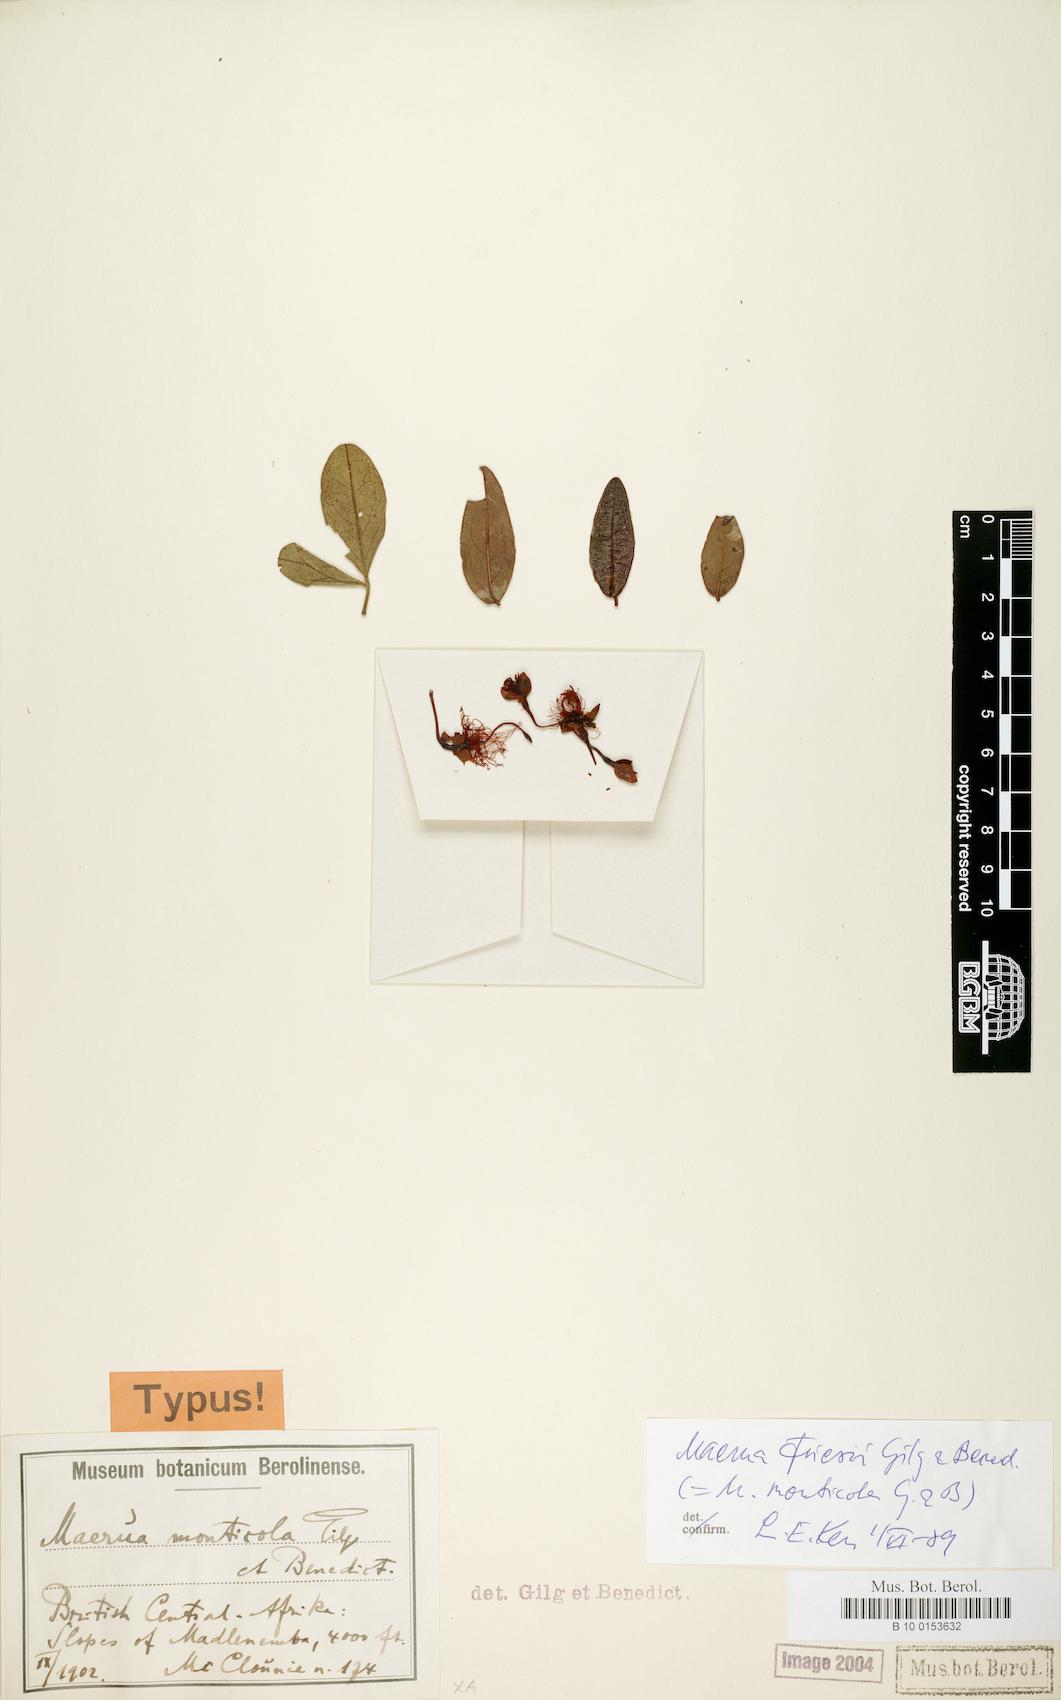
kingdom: Plantae
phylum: Tracheophyta
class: Magnoliopsida
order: Brassicales
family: Capparaceae
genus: Maerua
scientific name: Maerua friesii
